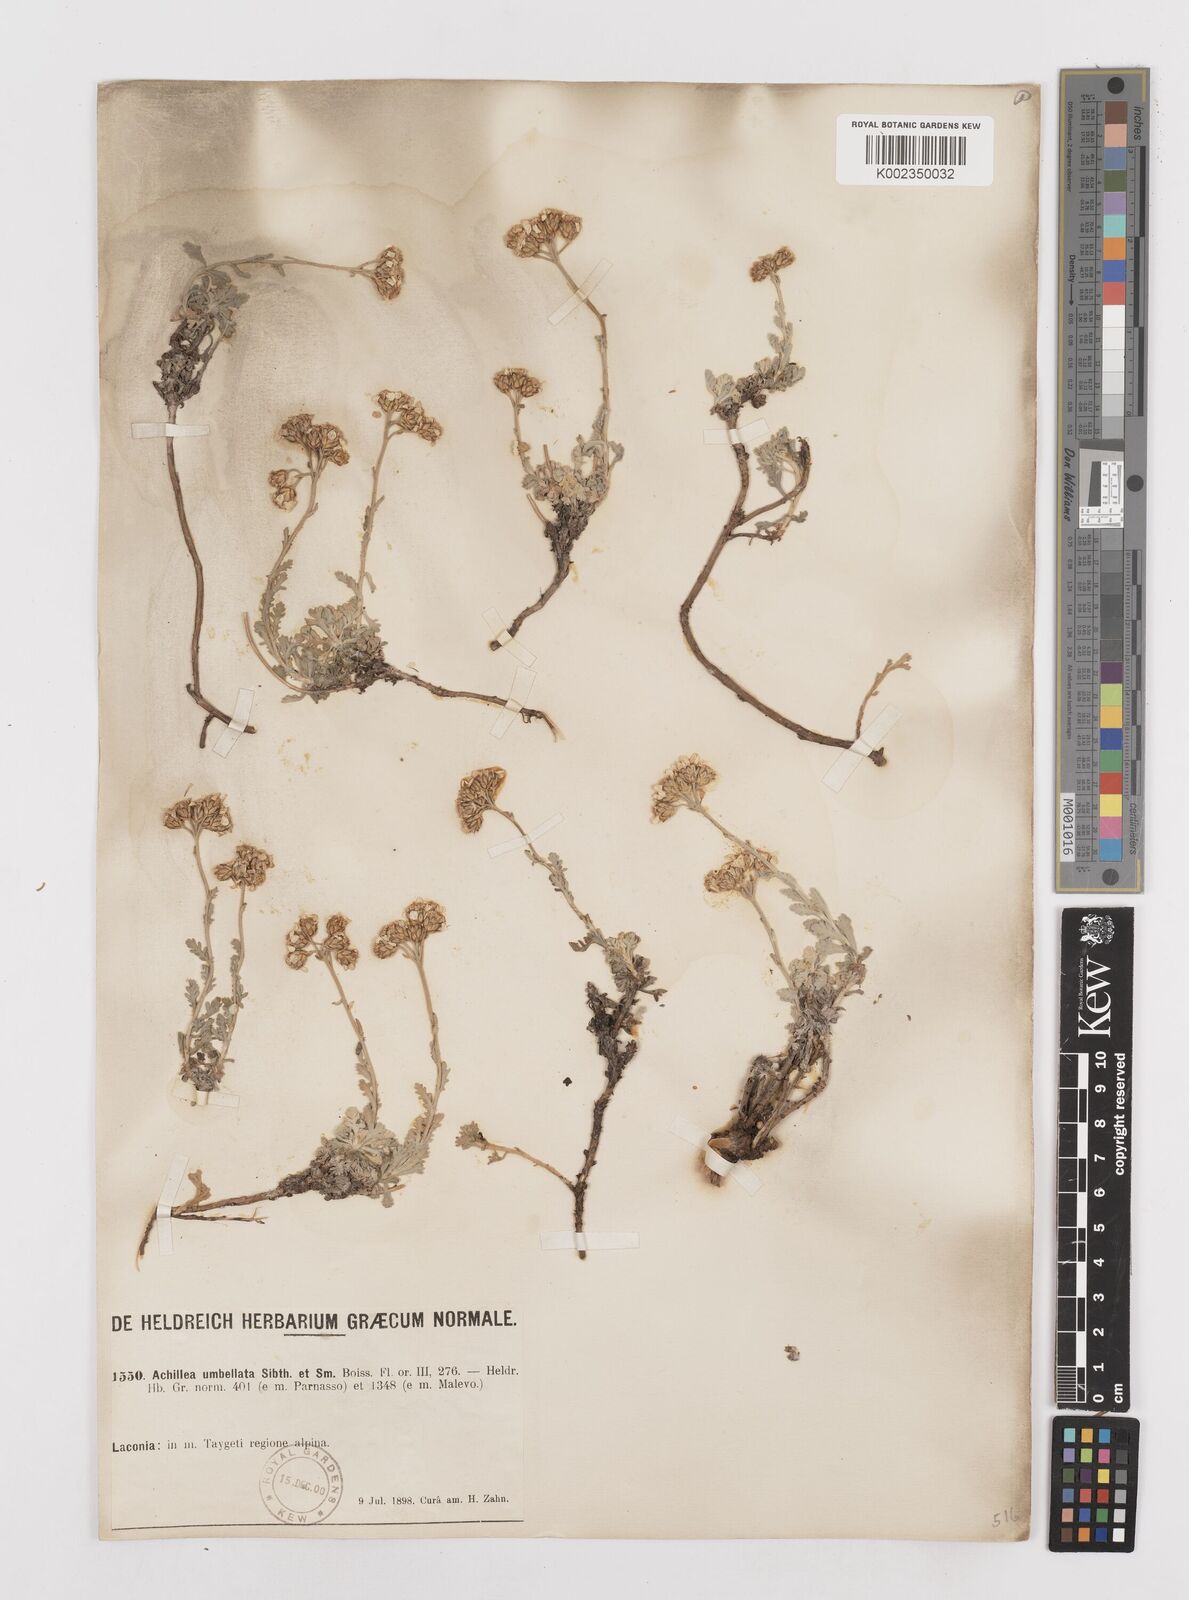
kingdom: Plantae
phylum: Tracheophyta
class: Magnoliopsida
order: Asterales
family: Asteraceae
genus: Achillea
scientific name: Achillea umbellata
